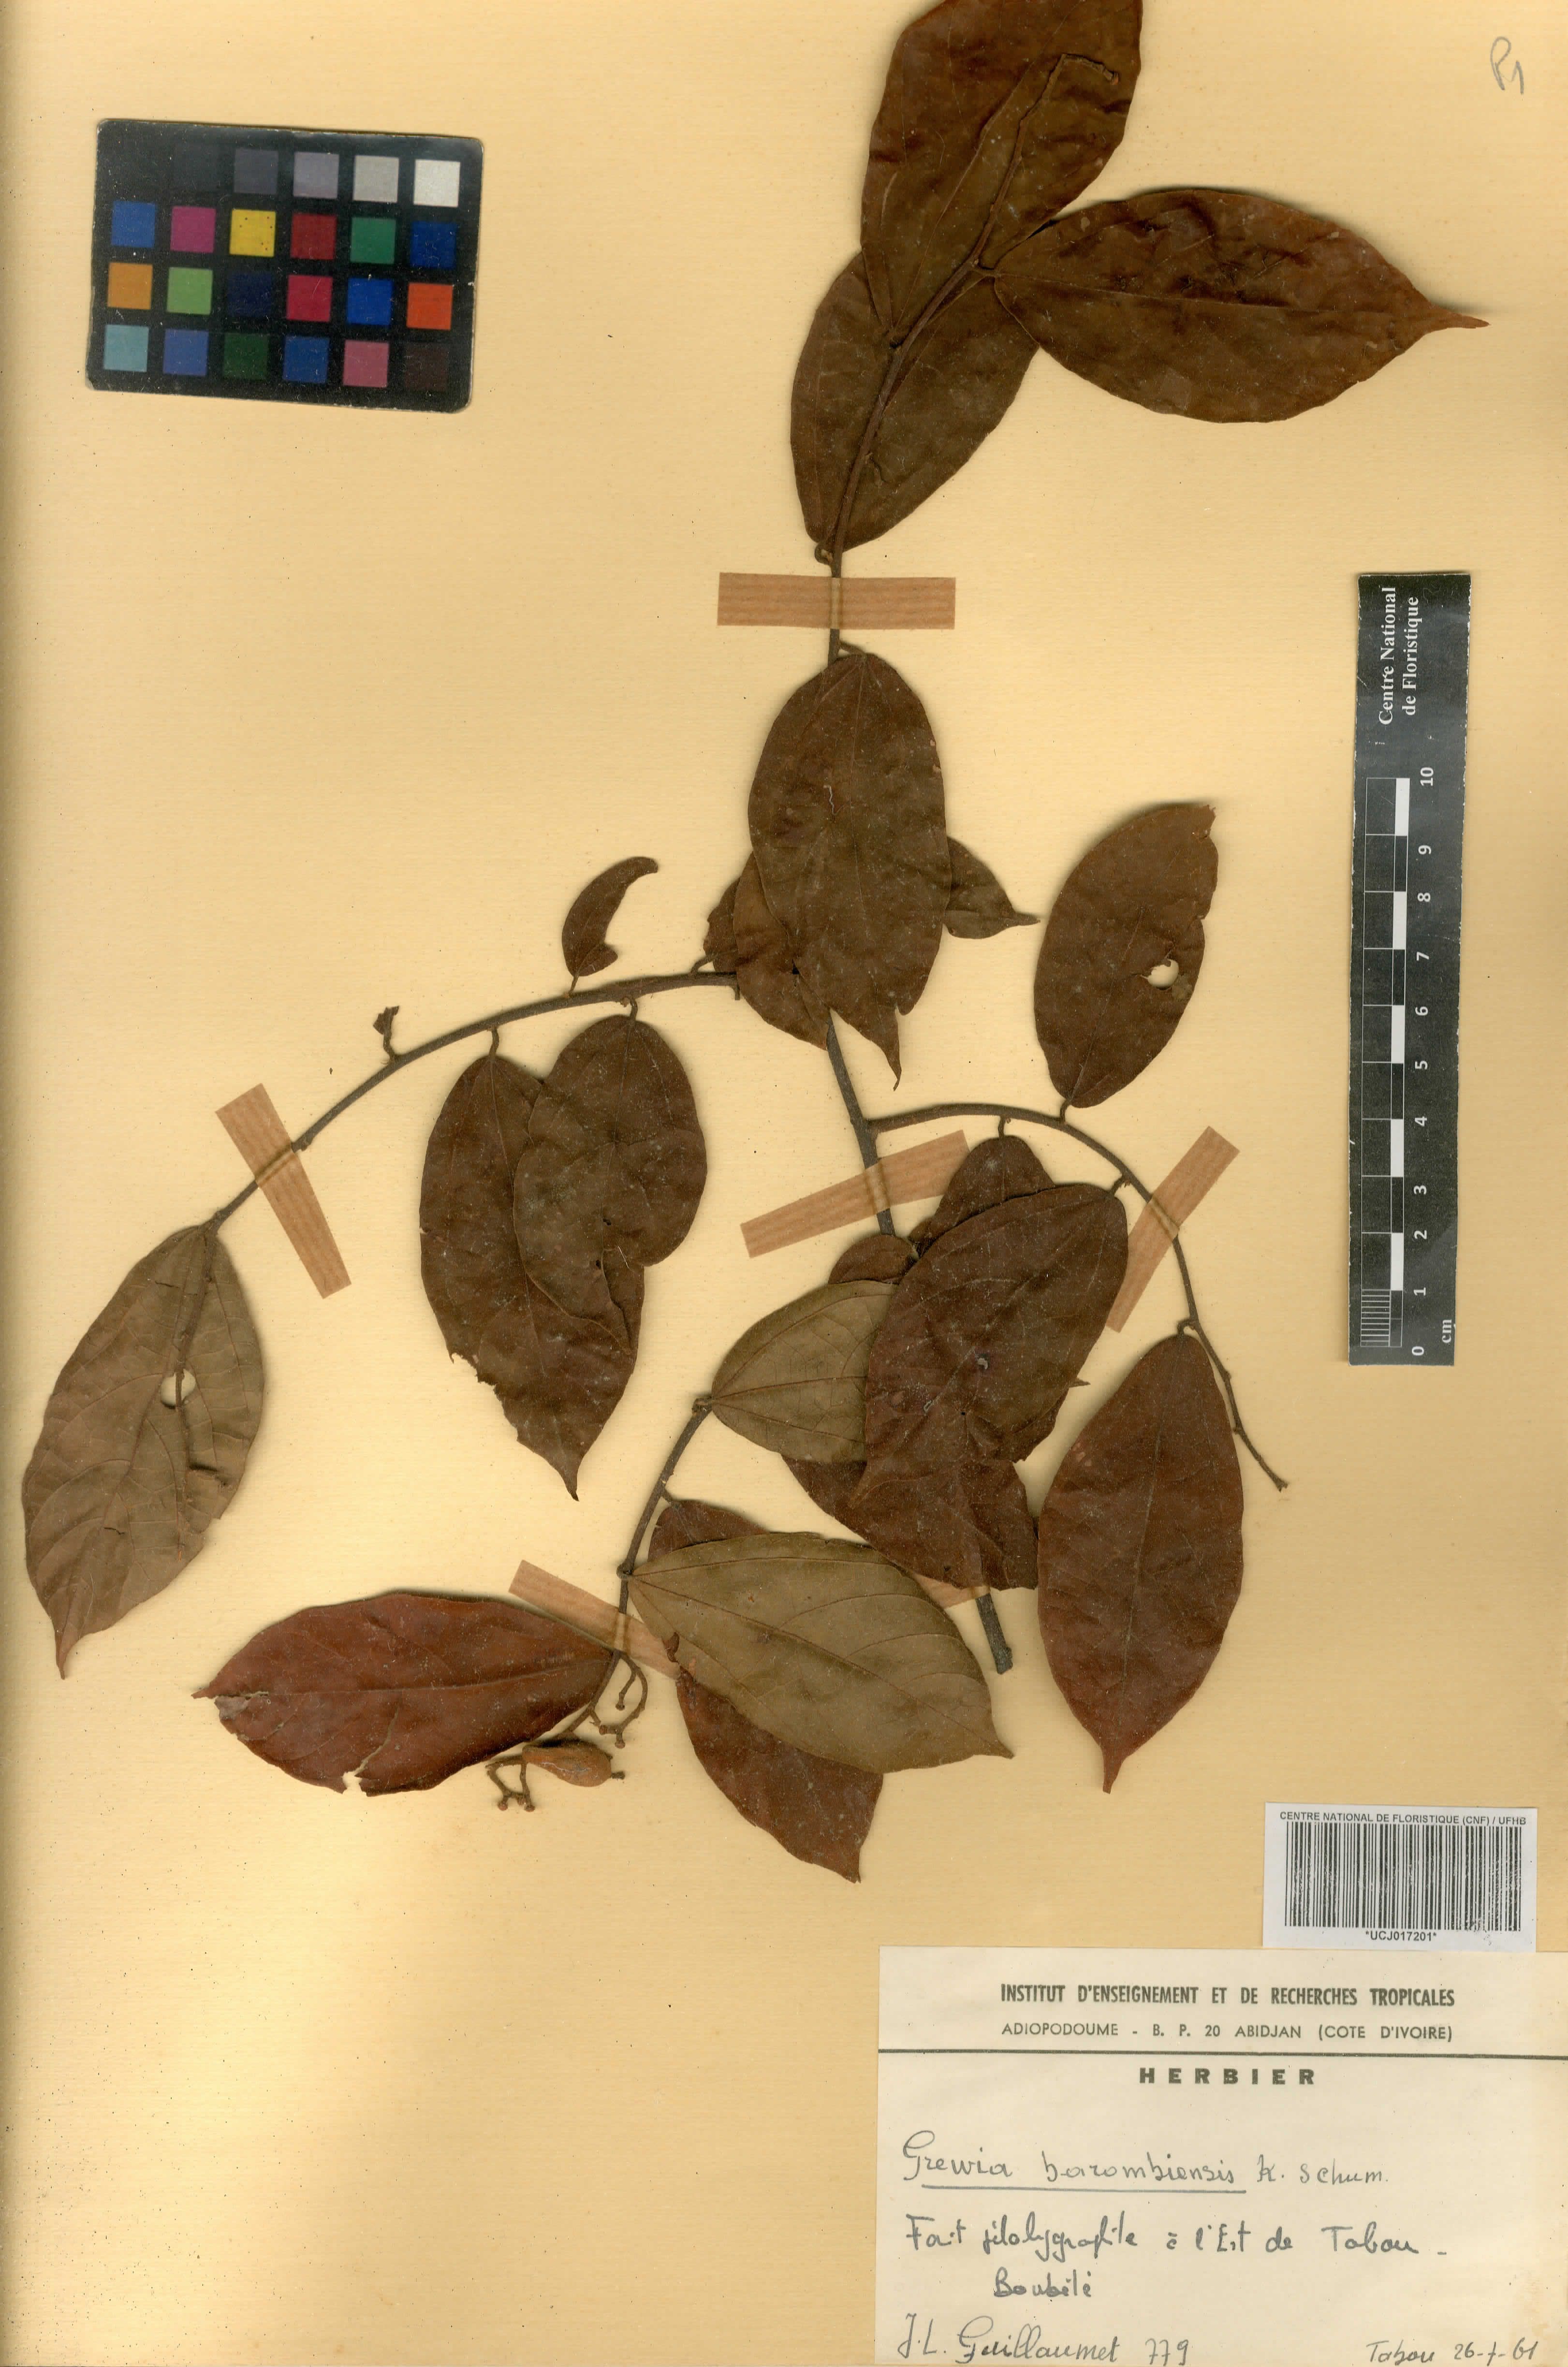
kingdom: Plantae
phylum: Tracheophyta
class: Magnoliopsida
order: Malvales
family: Malvaceae
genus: Microcos
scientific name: Microcos barombiensis
